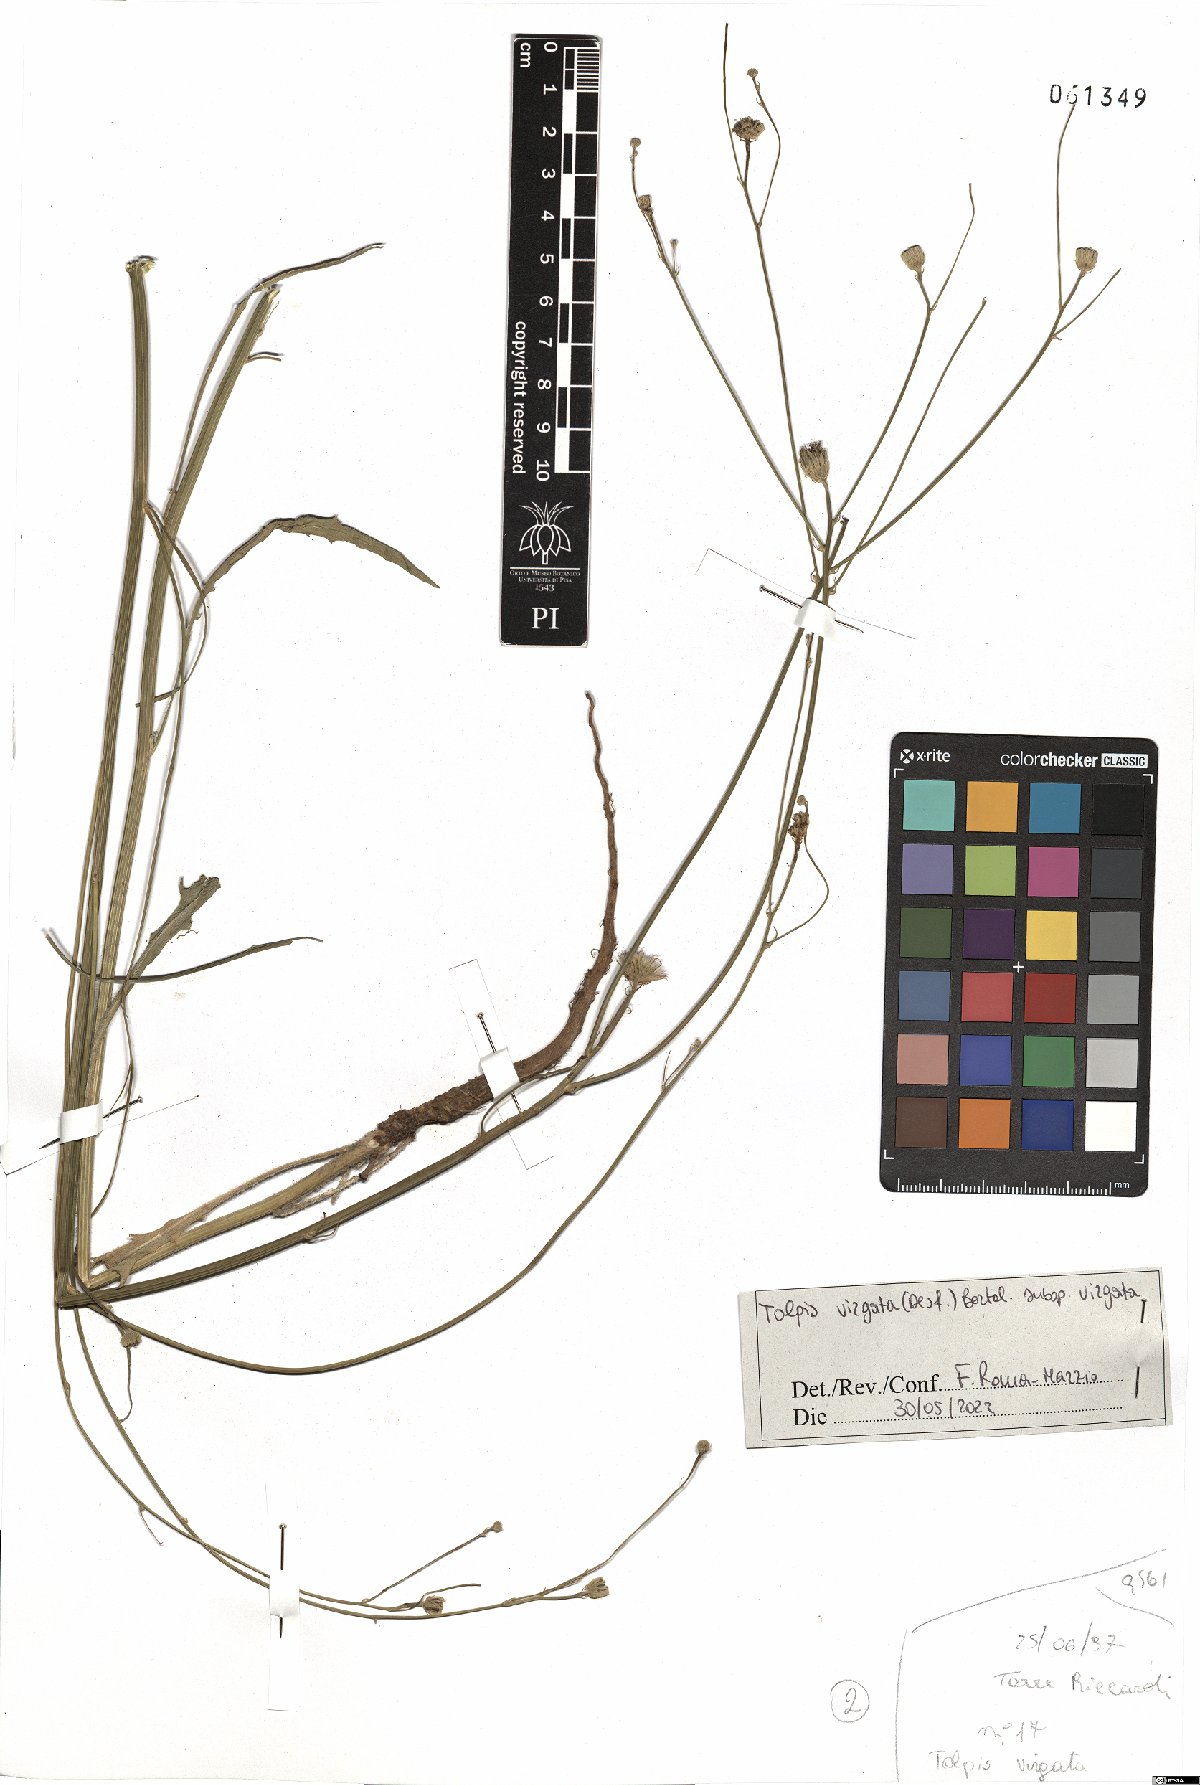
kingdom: Plantae
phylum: Tracheophyta
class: Magnoliopsida
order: Asterales
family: Asteraceae
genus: Tolpis
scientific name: Tolpis virgata
